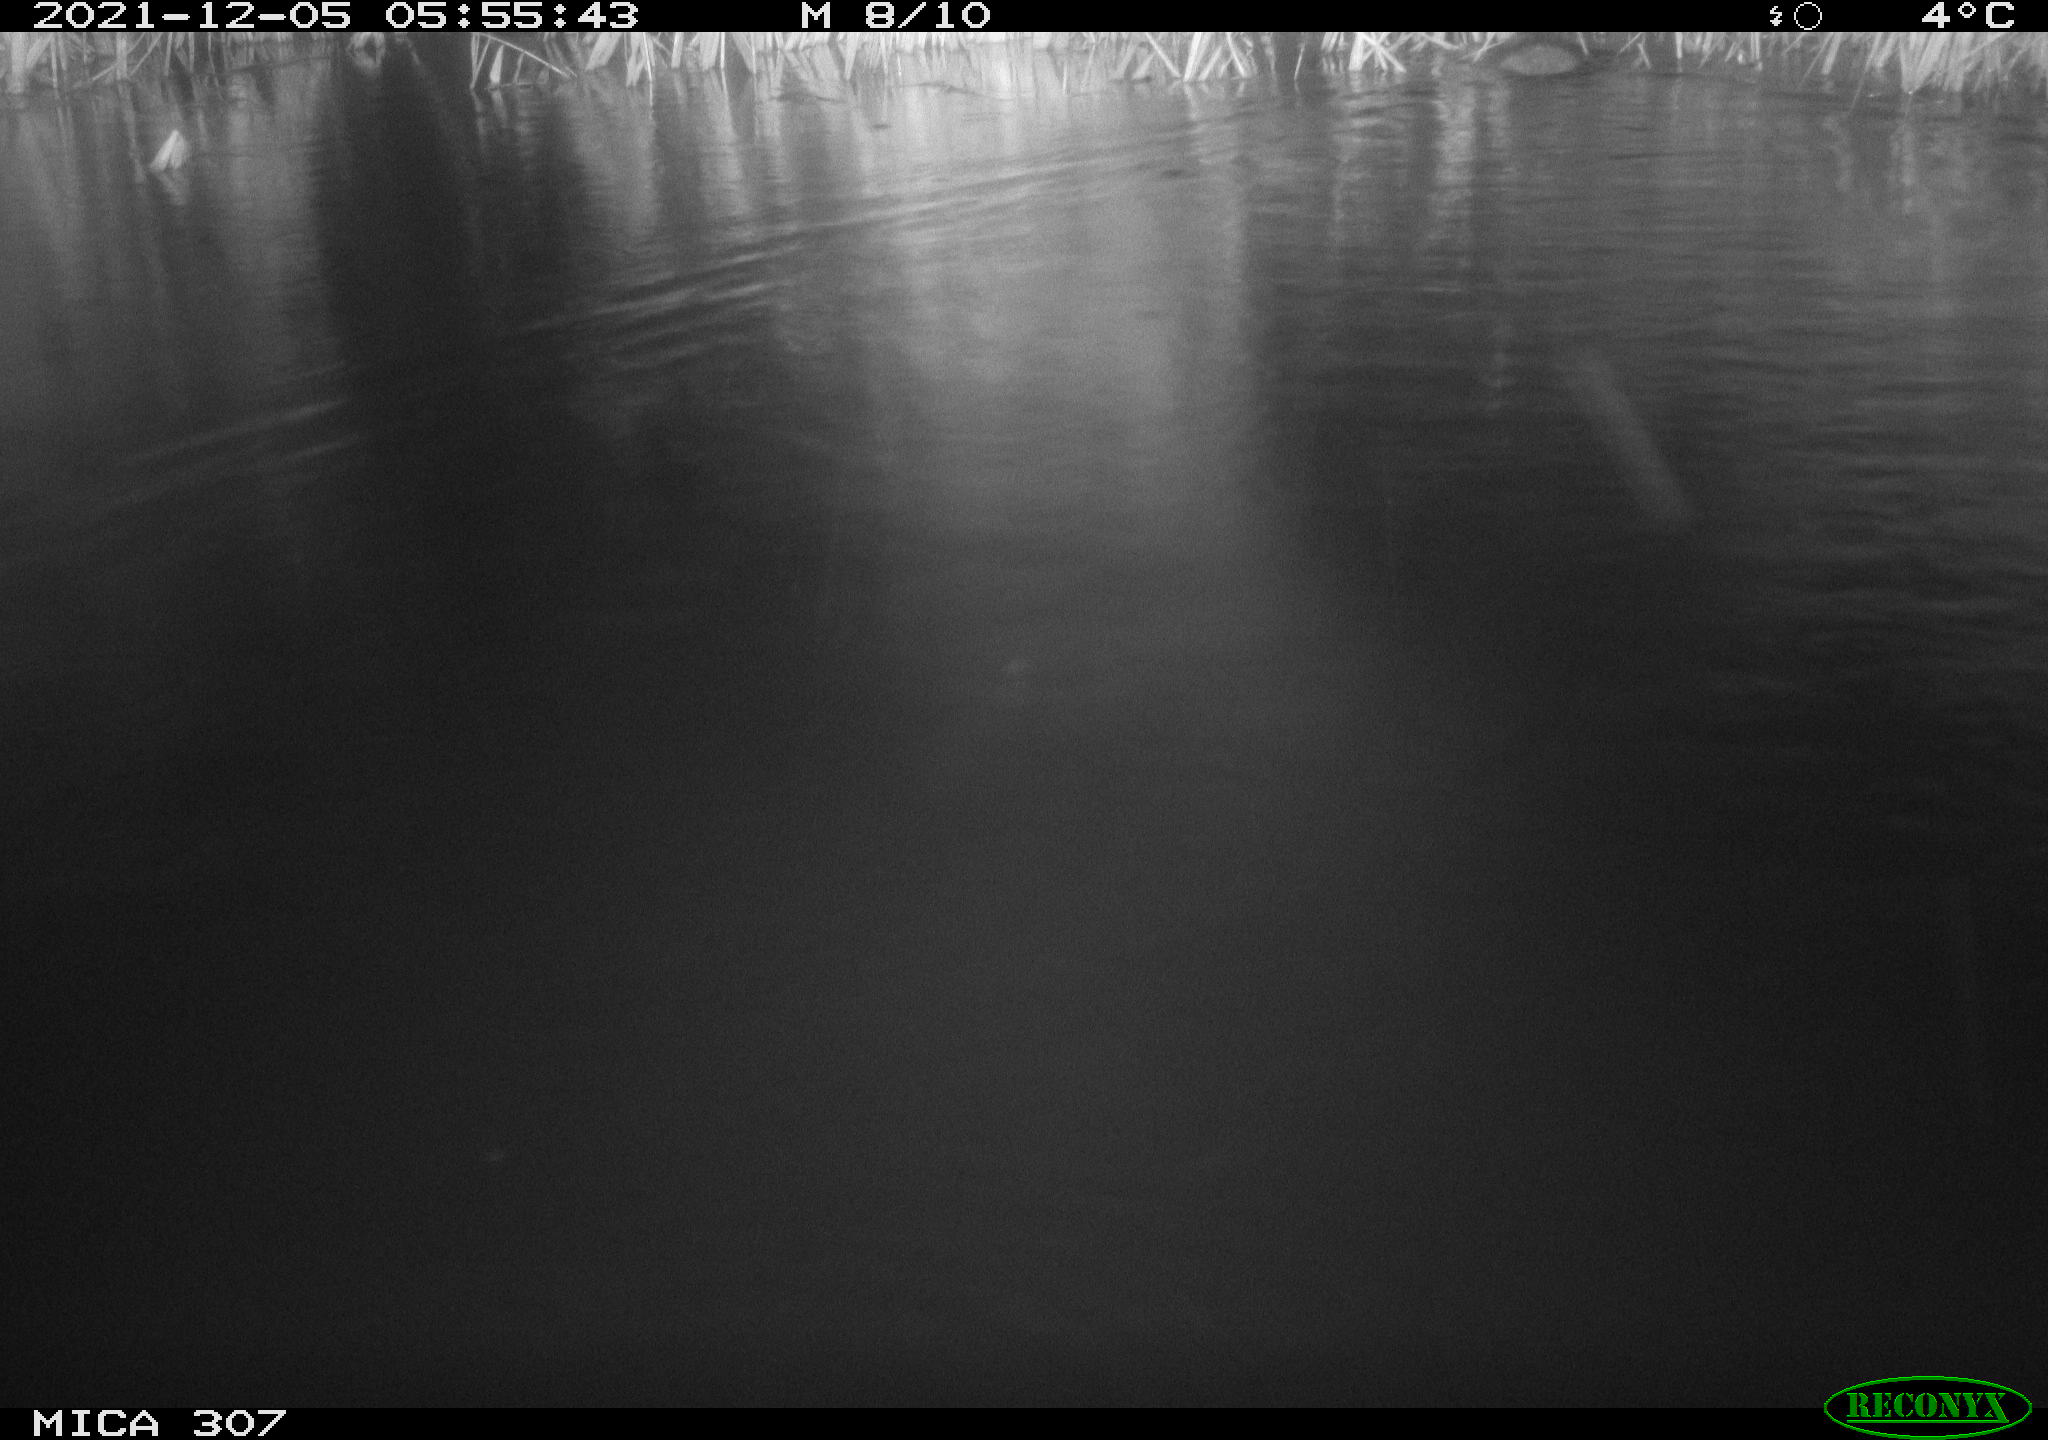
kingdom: Animalia
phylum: Chordata
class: Mammalia
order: Rodentia
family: Muridae
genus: Rattus
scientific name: Rattus norvegicus
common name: Brown rat
